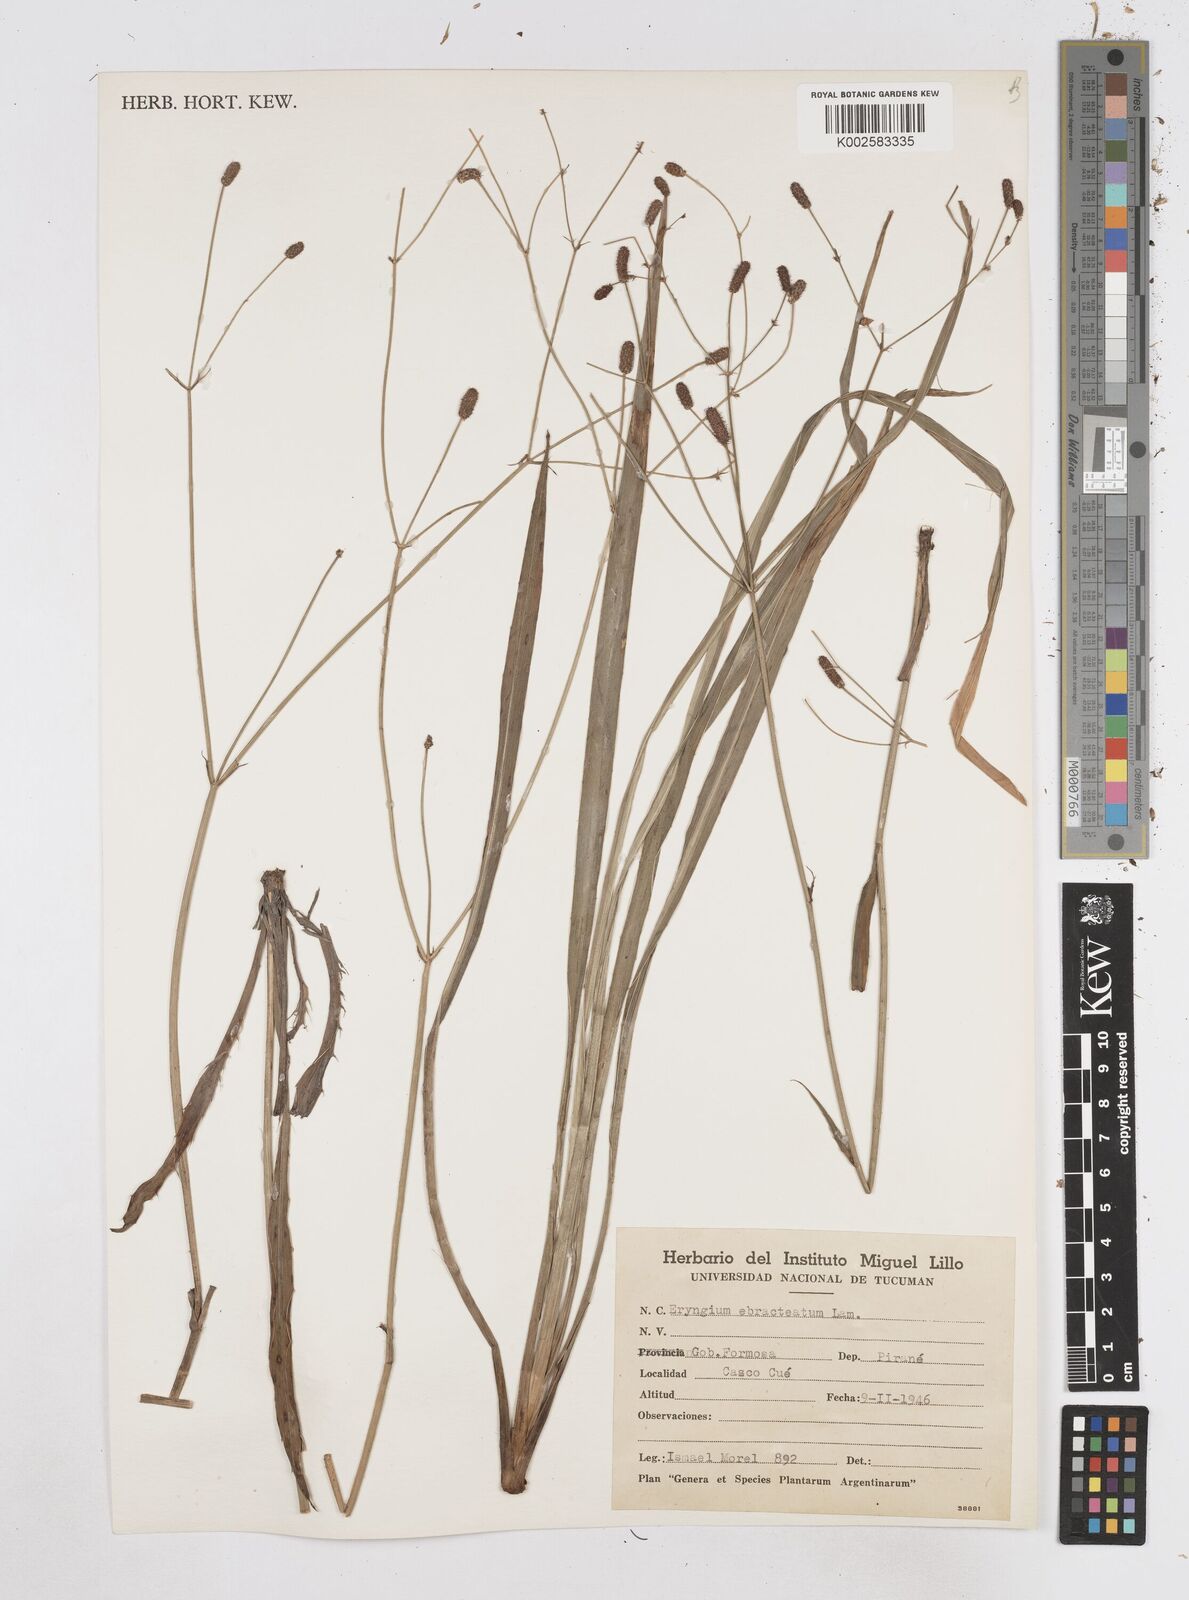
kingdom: Plantae
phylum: Tracheophyta
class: Magnoliopsida
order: Apiales
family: Apiaceae
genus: Eryngium
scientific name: Eryngium ebracteatum
